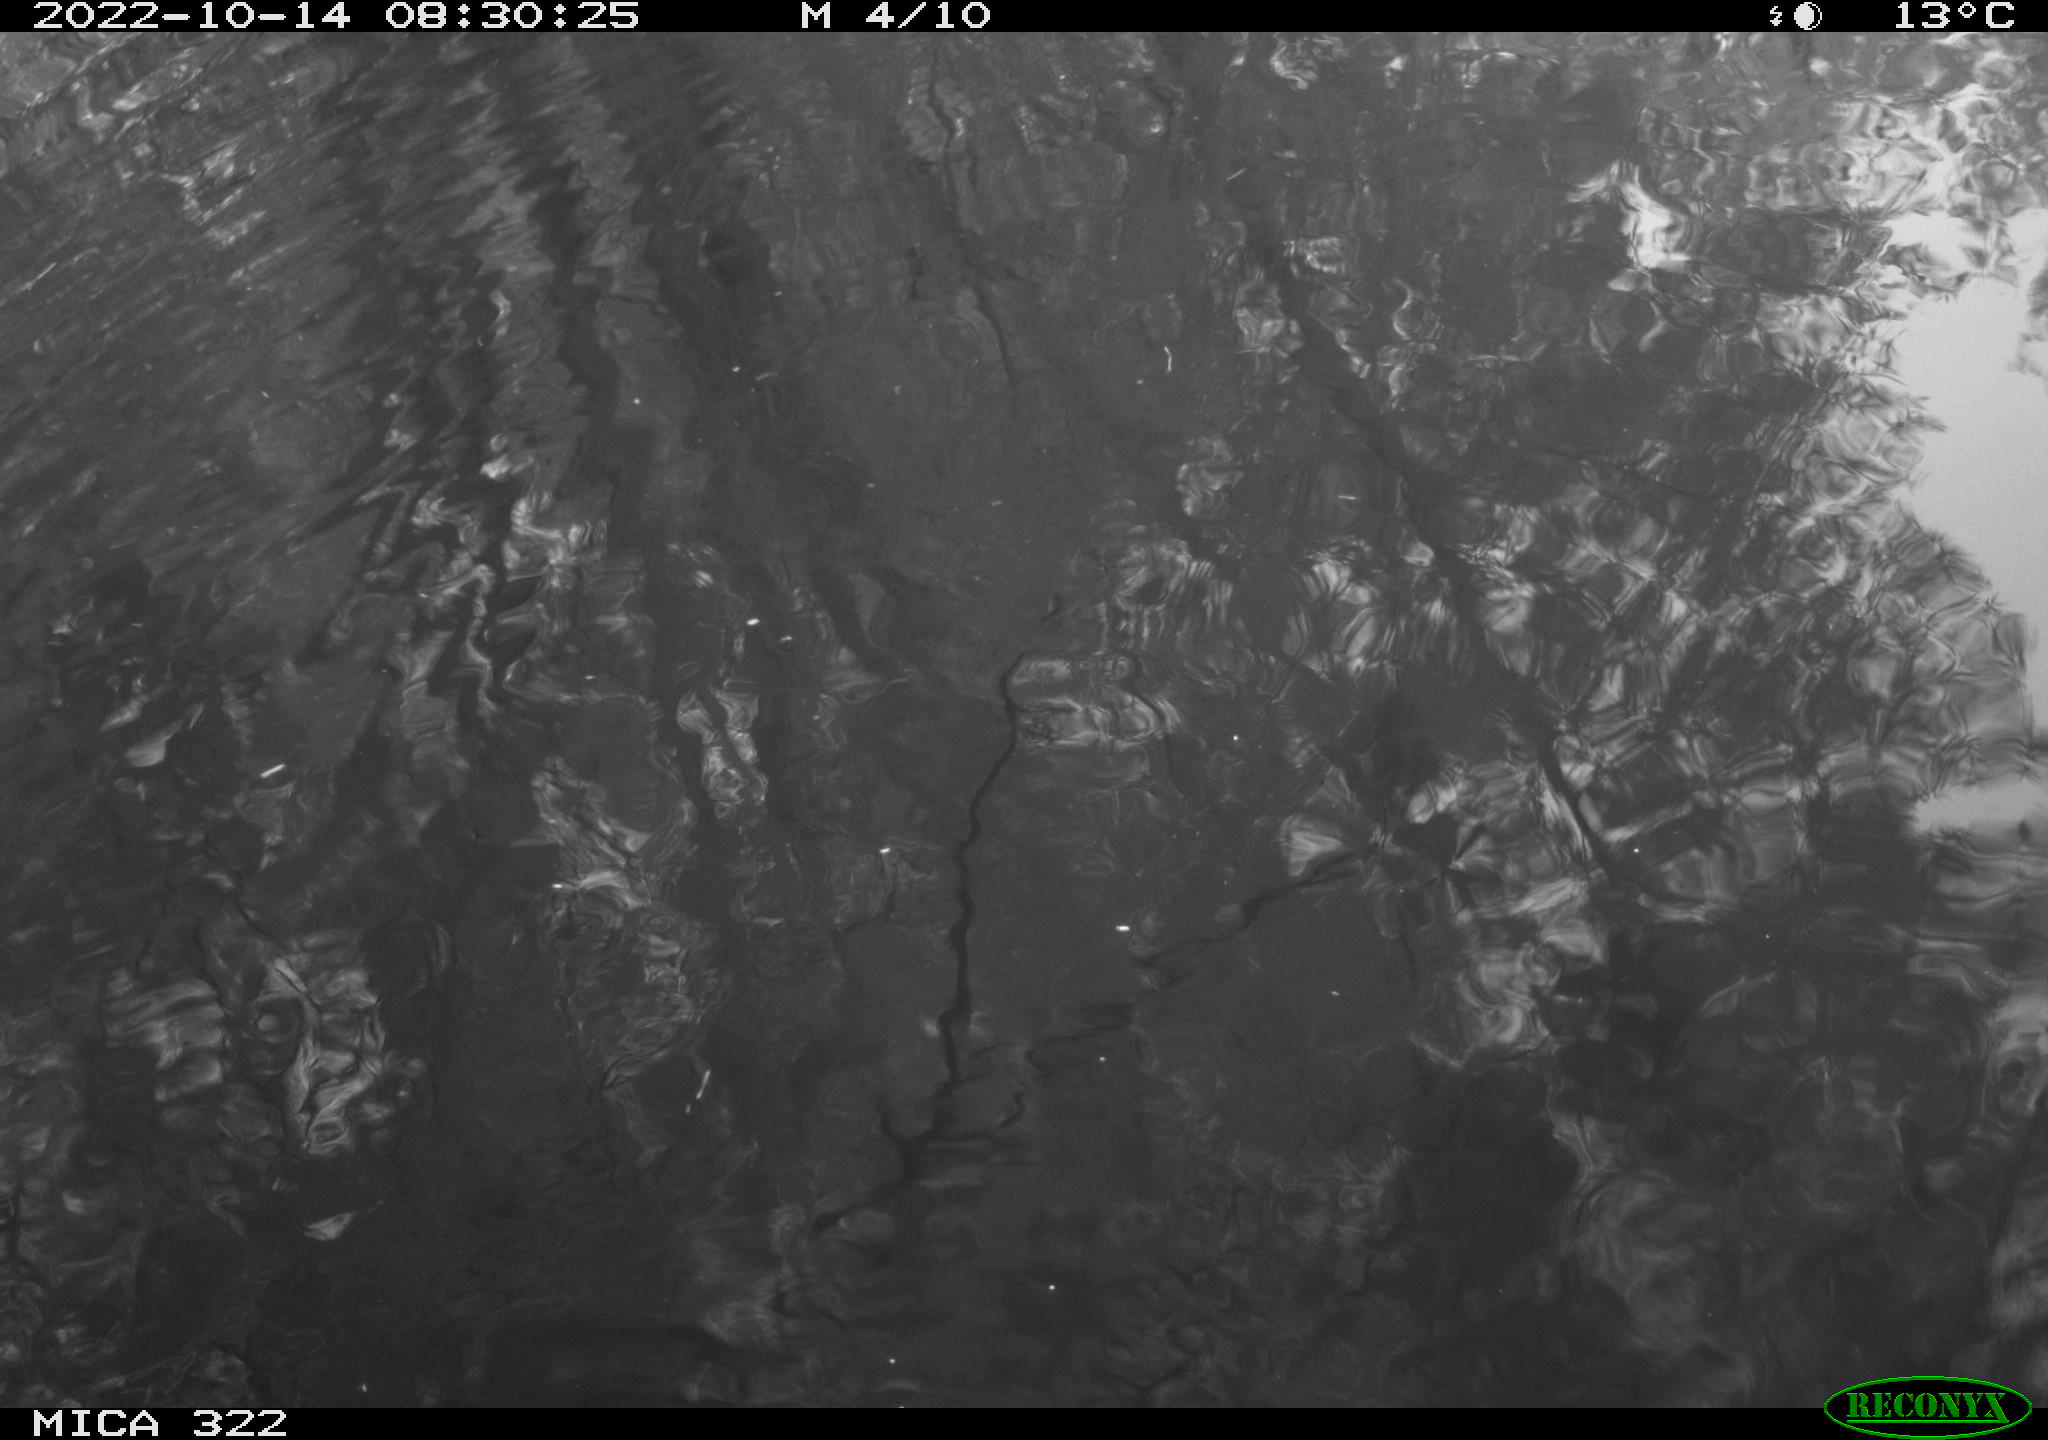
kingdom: Animalia
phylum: Chordata
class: Mammalia
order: Rodentia
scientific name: Rodentia
